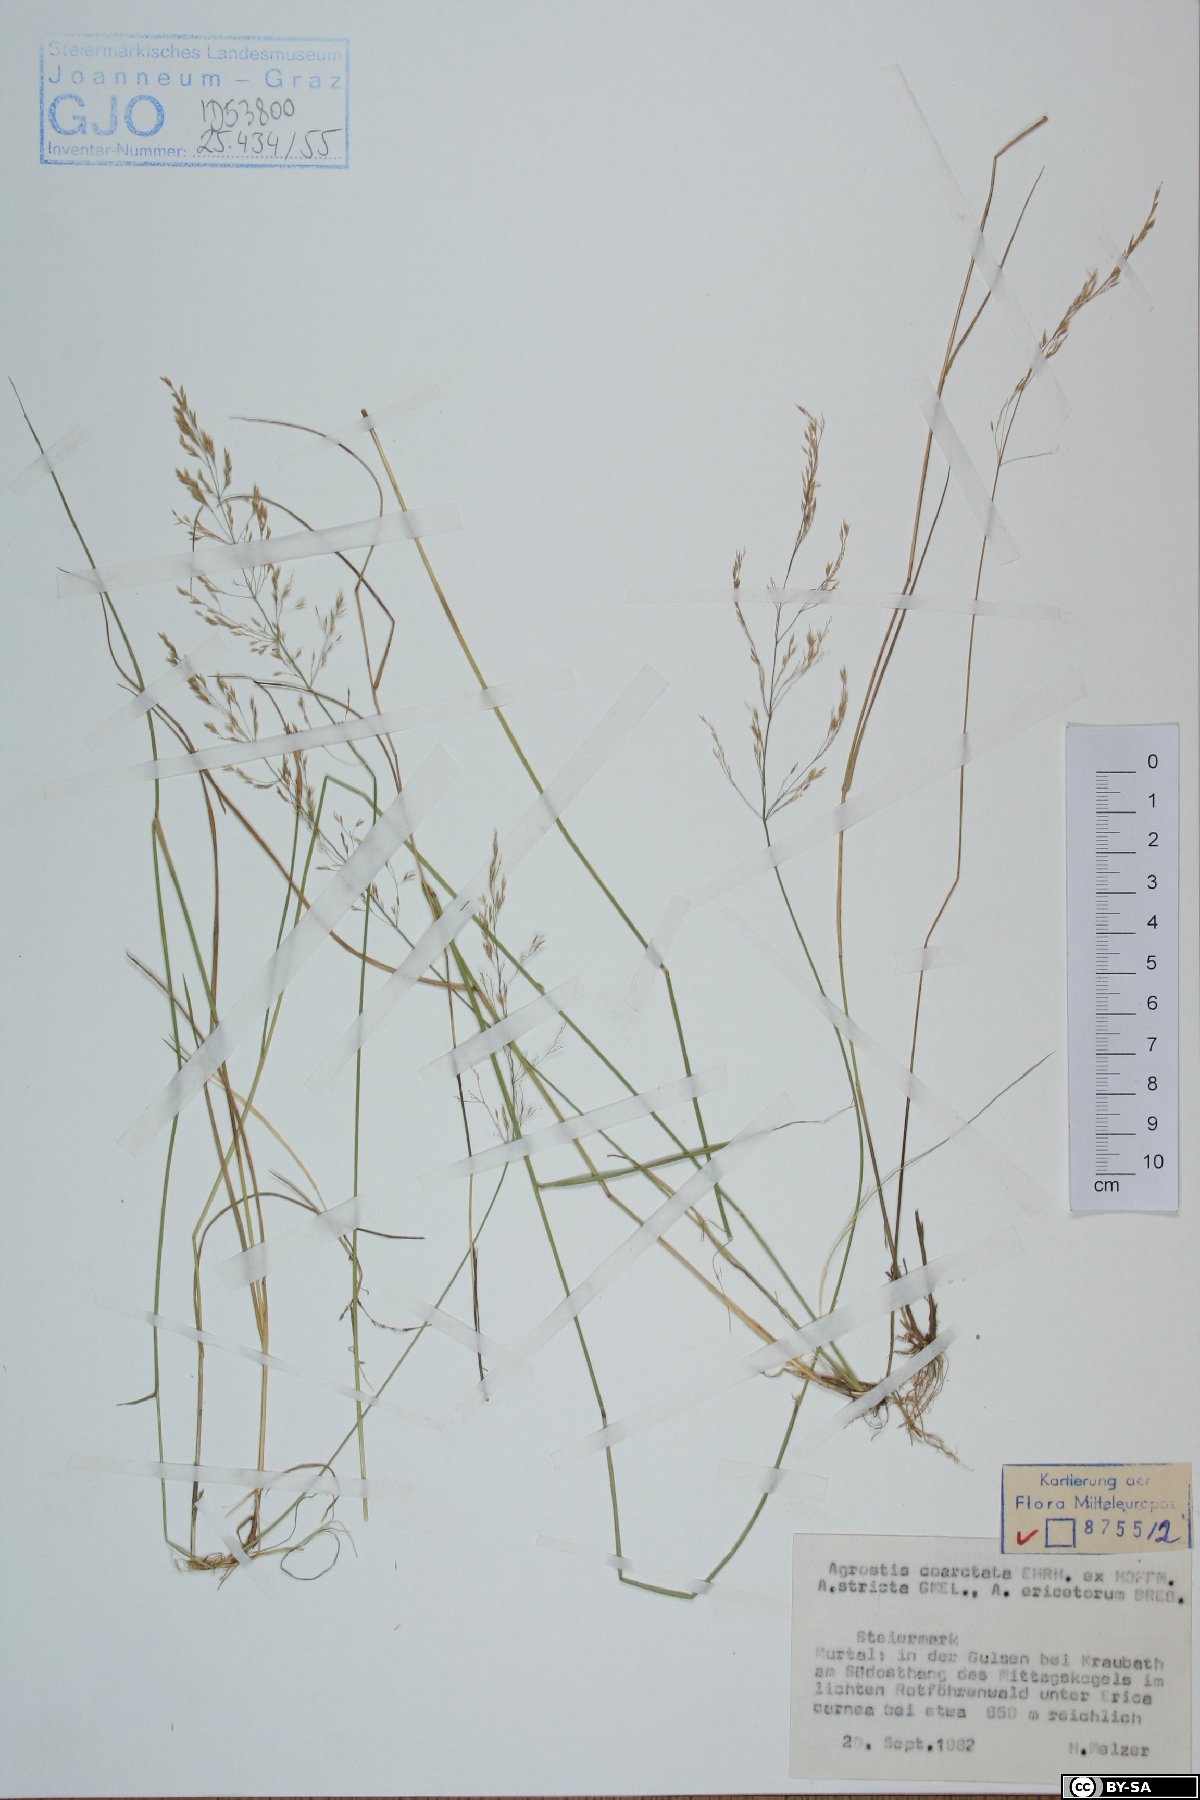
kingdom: Plantae
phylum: Tracheophyta
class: Liliopsida
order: Poales
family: Poaceae
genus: Agrostis
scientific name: Agrostis vinealis
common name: Brown bent
